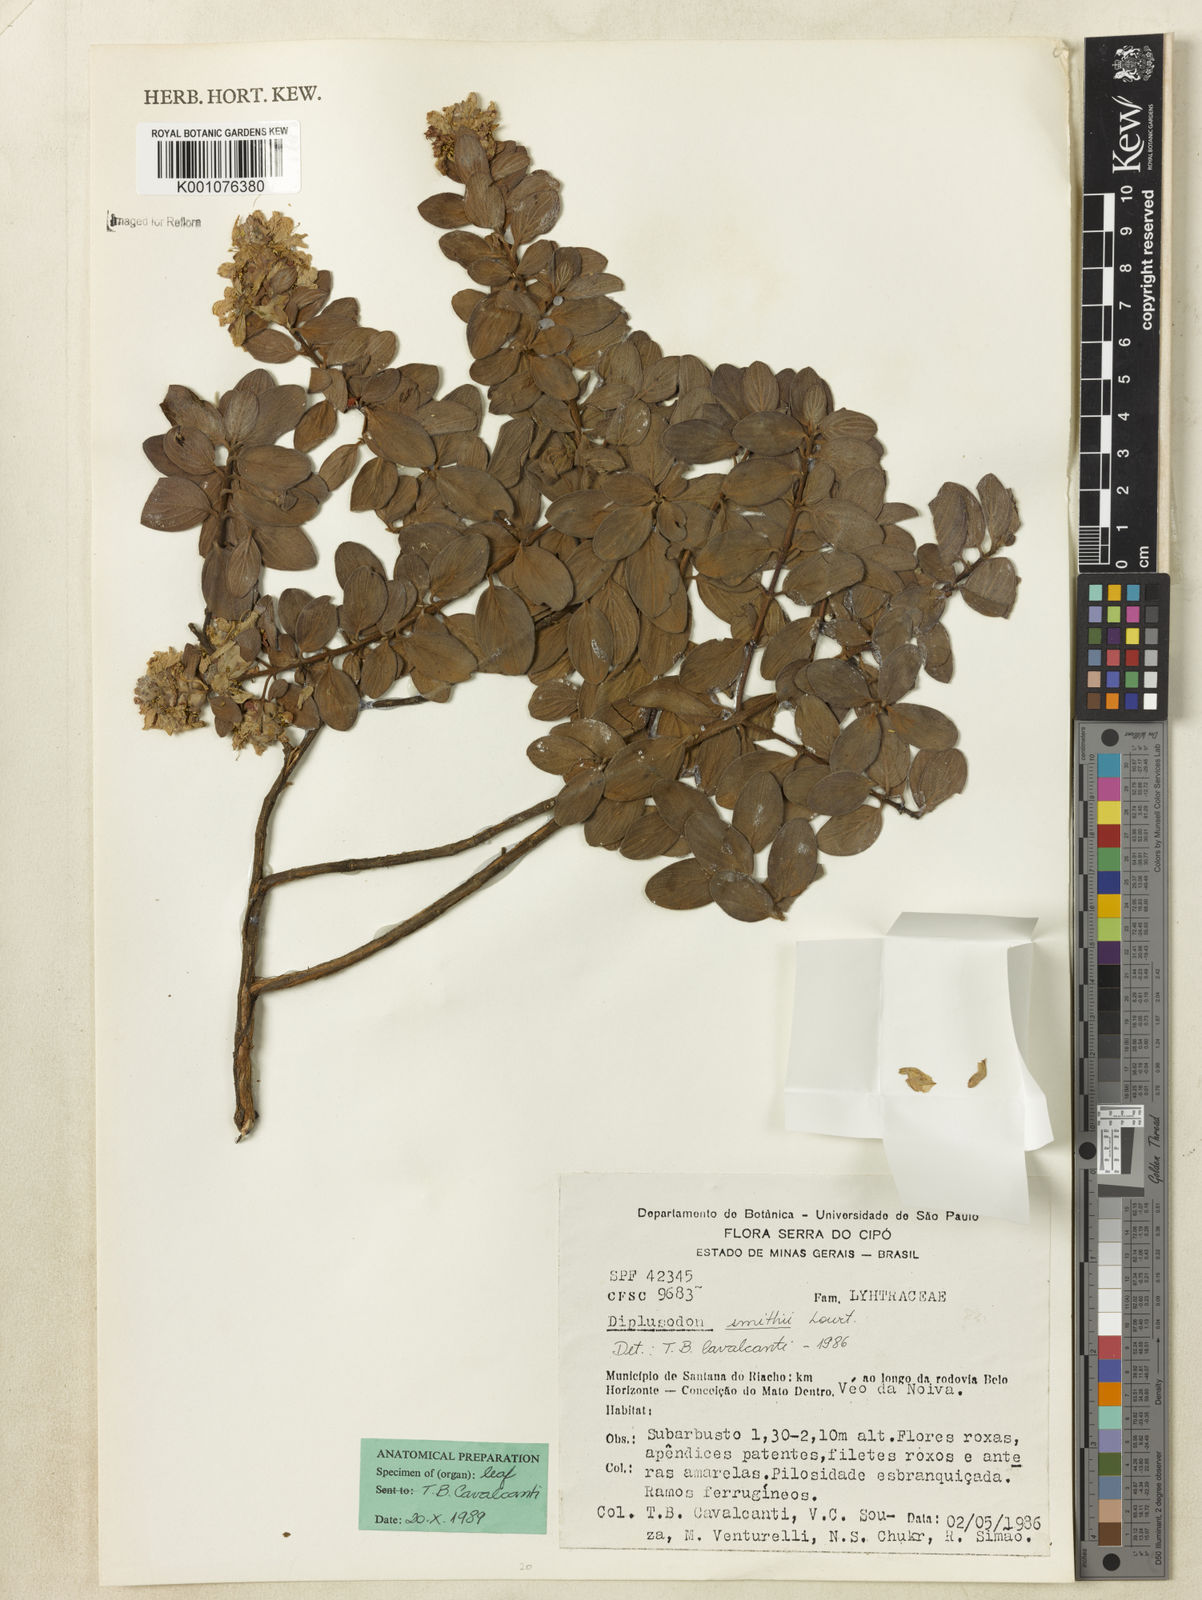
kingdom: Plantae
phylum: Tracheophyta
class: Magnoliopsida
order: Myrtales
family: Lythraceae
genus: Diplusodon
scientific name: Diplusodon hirsutus
